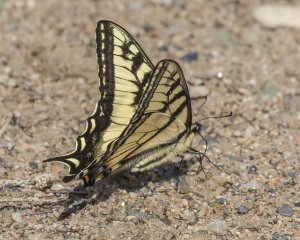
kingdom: Animalia
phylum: Arthropoda
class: Insecta
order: Lepidoptera
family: Papilionidae
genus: Pterourus
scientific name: Pterourus canadensis
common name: Canadian Tiger Swallowtail
